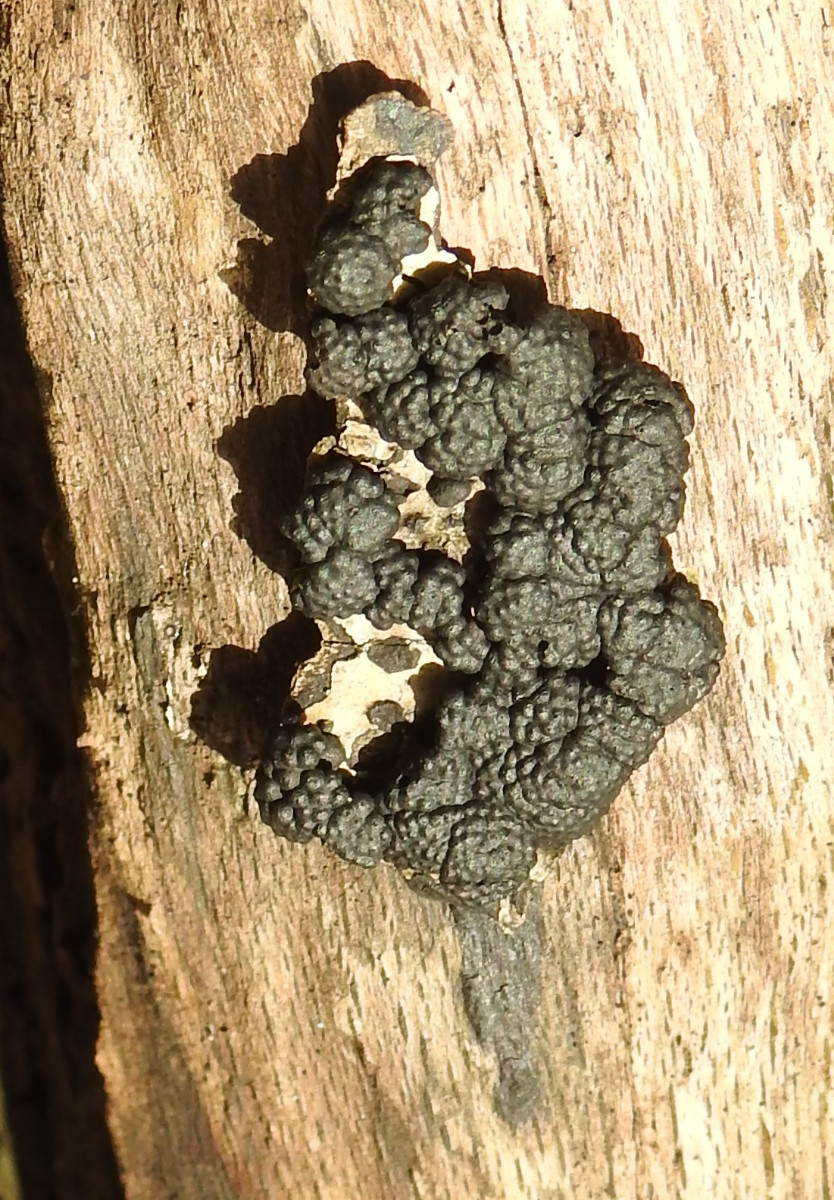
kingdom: Fungi
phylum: Ascomycota
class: Sordariomycetes
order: Xylariales
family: Hypoxylaceae
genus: Jackrogersella
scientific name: Jackrogersella cohaerens
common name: sammenflydende kulbær
